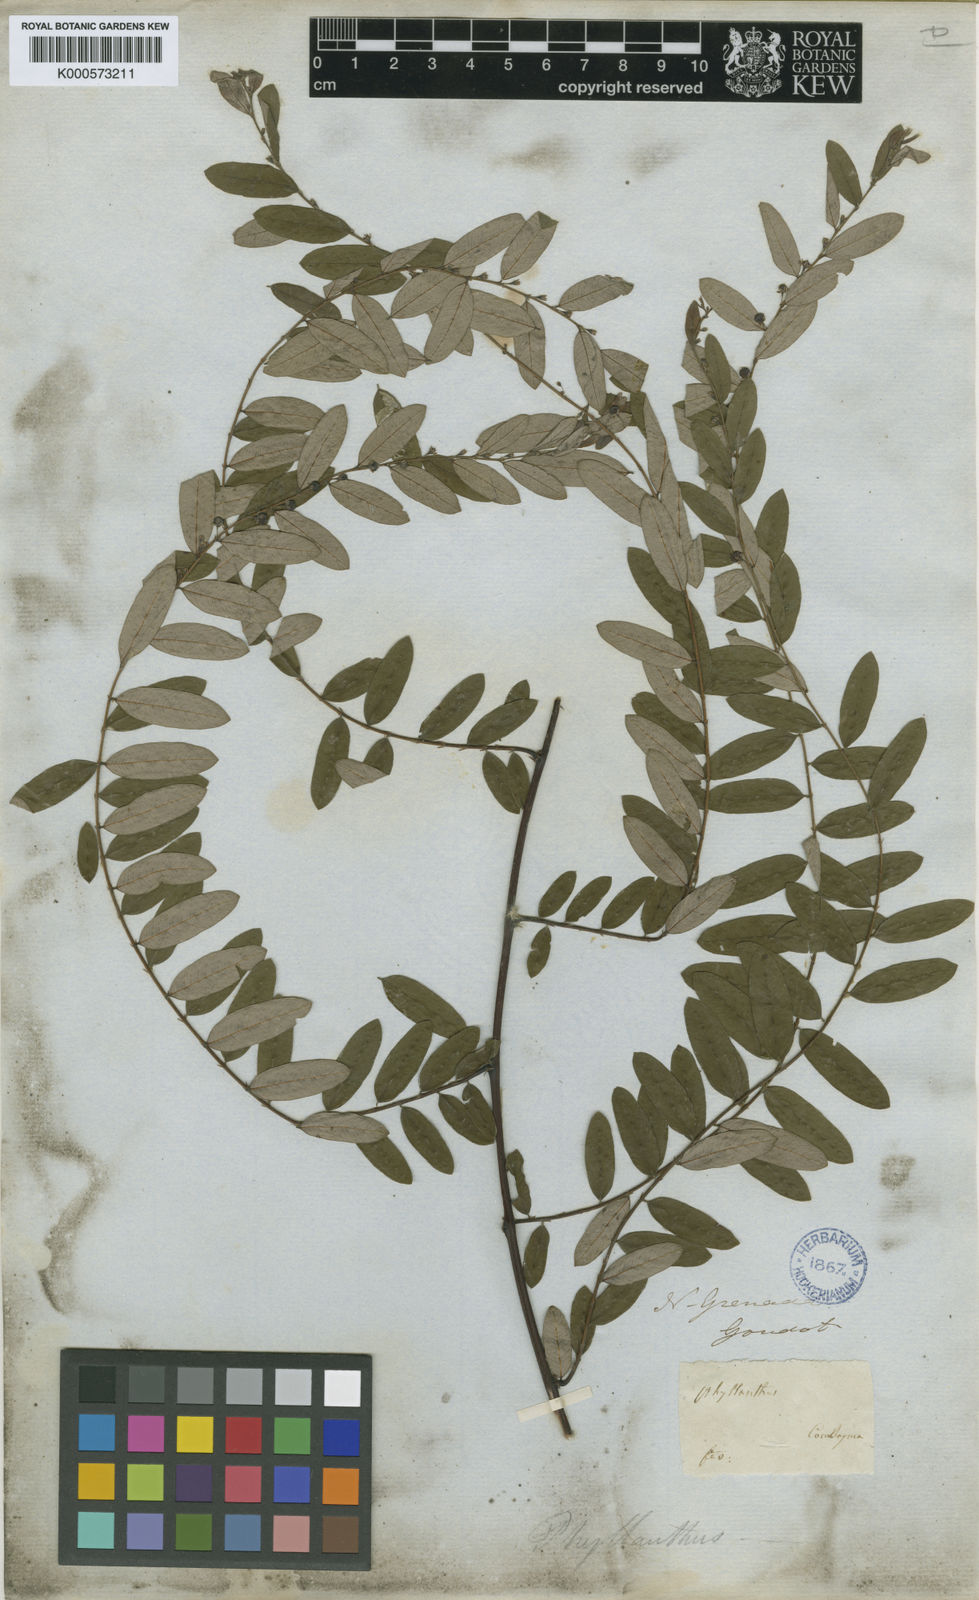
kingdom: Plantae
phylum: Tracheophyta
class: Magnoliopsida
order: Malpighiales
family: Phyllanthaceae
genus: Phyllanthus
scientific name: Phyllanthus symphoricarpoides
